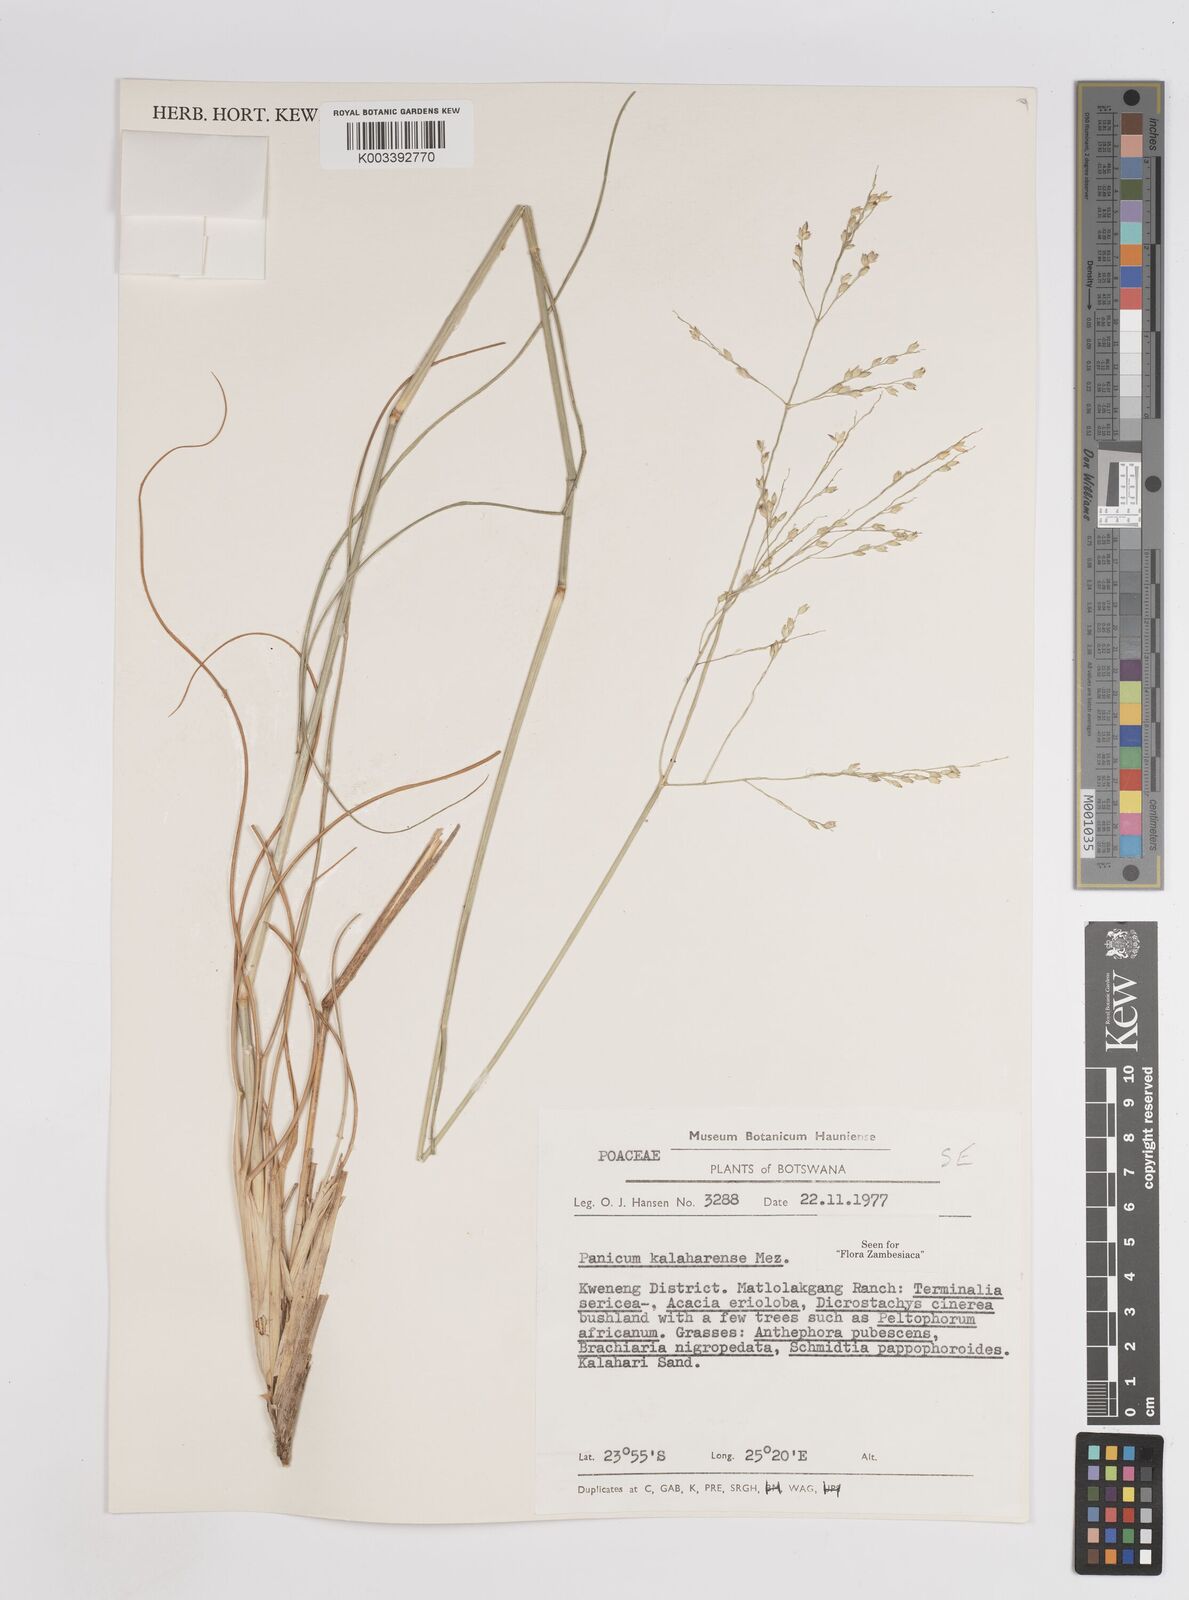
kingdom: Plantae
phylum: Tracheophyta
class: Liliopsida
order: Poales
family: Poaceae
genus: Panicum
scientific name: Panicum kalaharense
